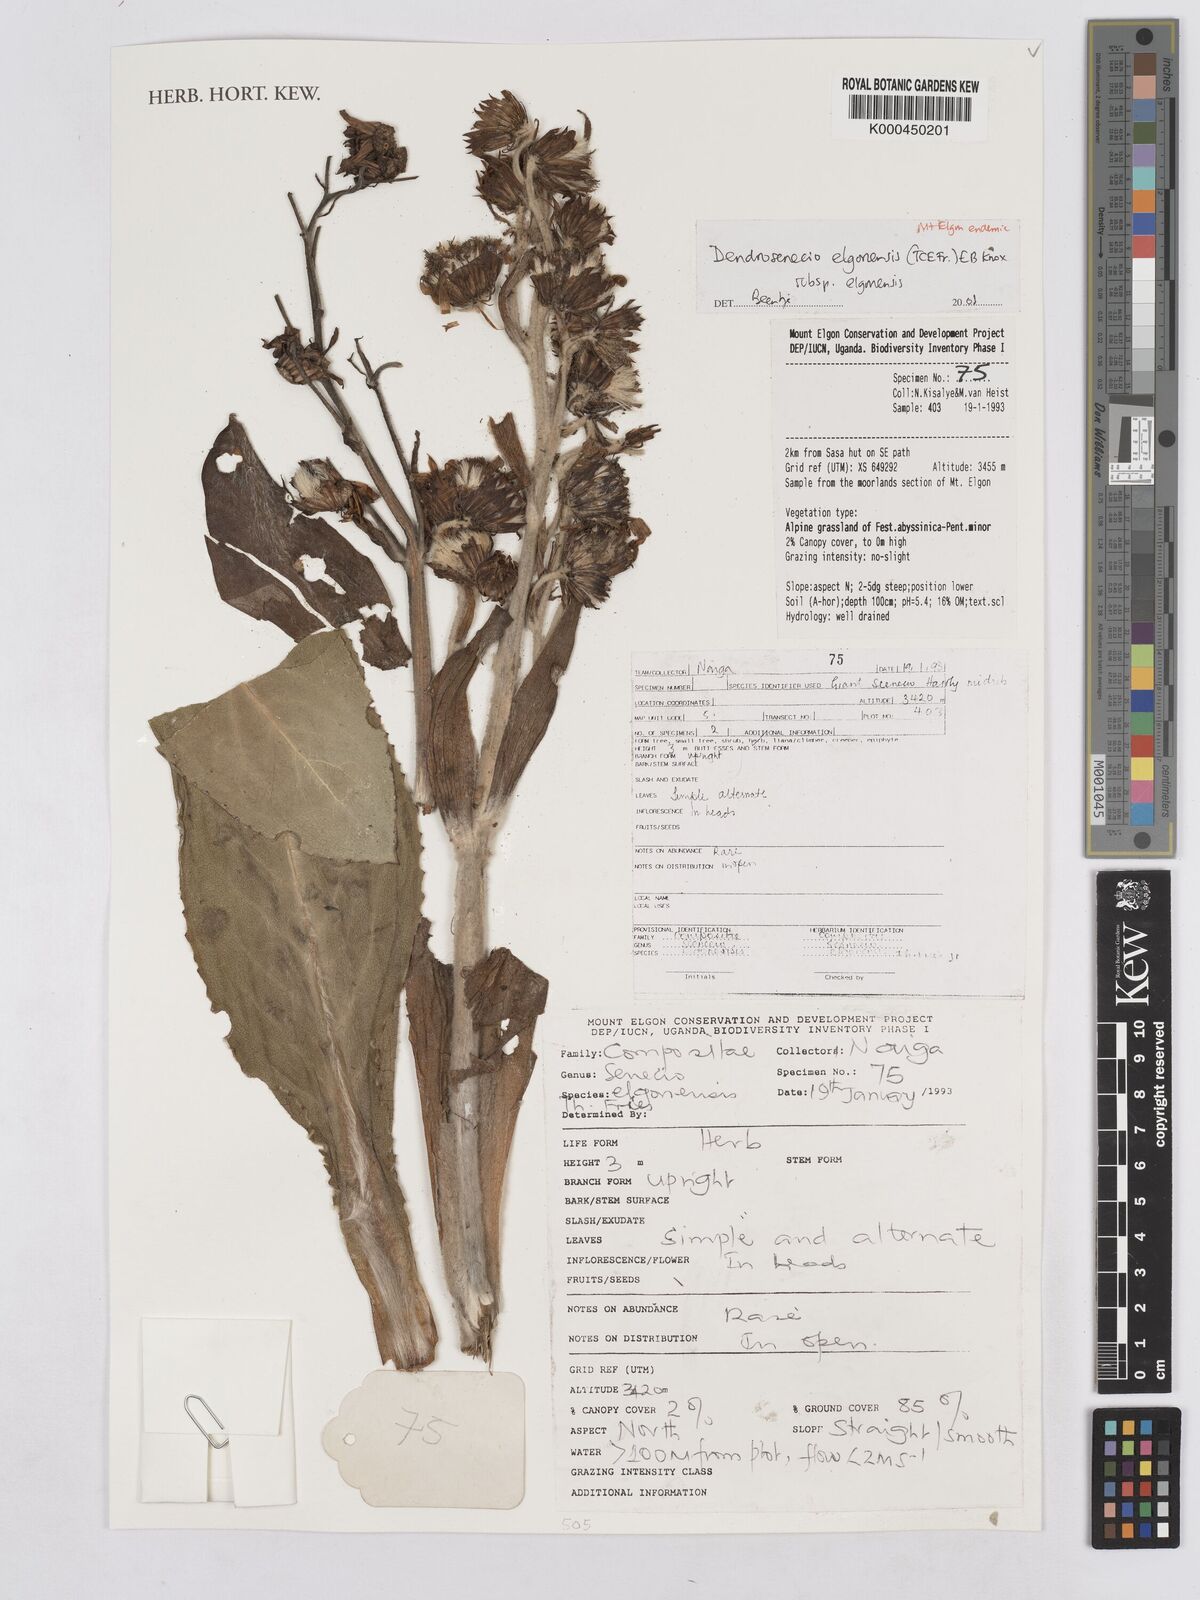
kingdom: Plantae
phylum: Tracheophyta
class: Magnoliopsida
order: Asterales
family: Asteraceae
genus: Dendrosenecio
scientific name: Dendrosenecio elgonensis
